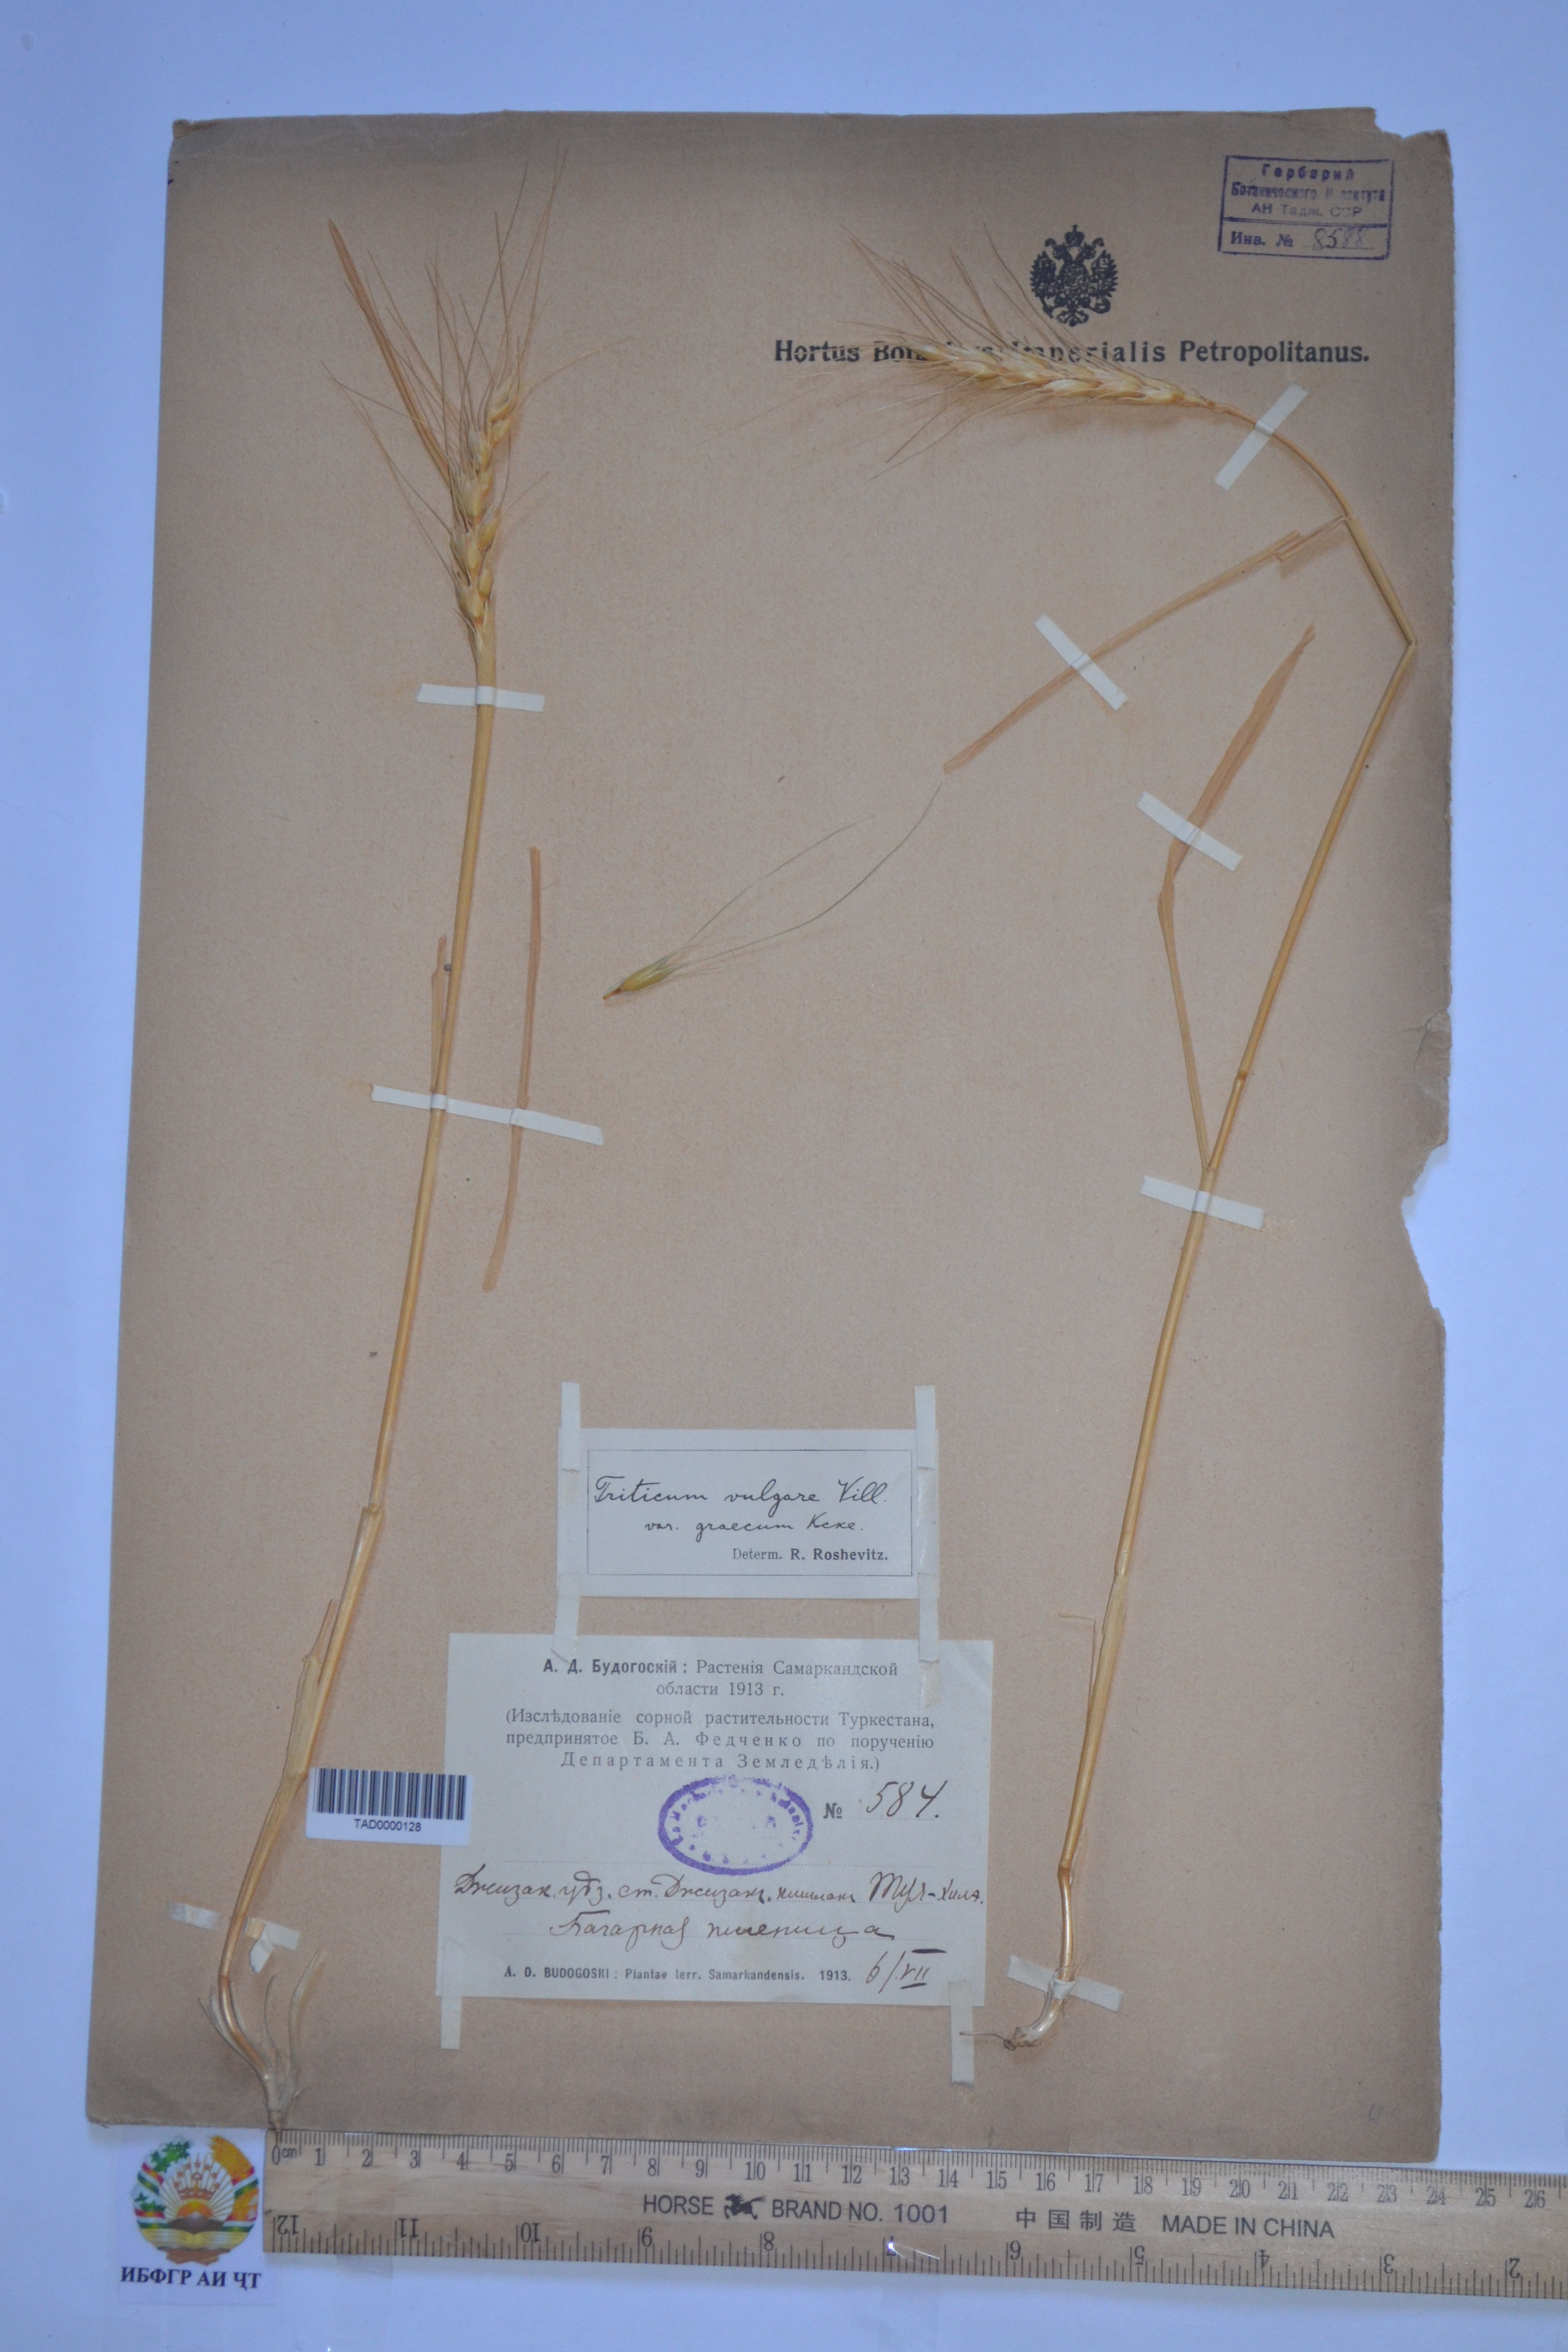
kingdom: Plantae
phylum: Tracheophyta
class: Liliopsida
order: Poales
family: Poaceae
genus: Triticum
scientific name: Triticum aestivum
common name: Common wheat
